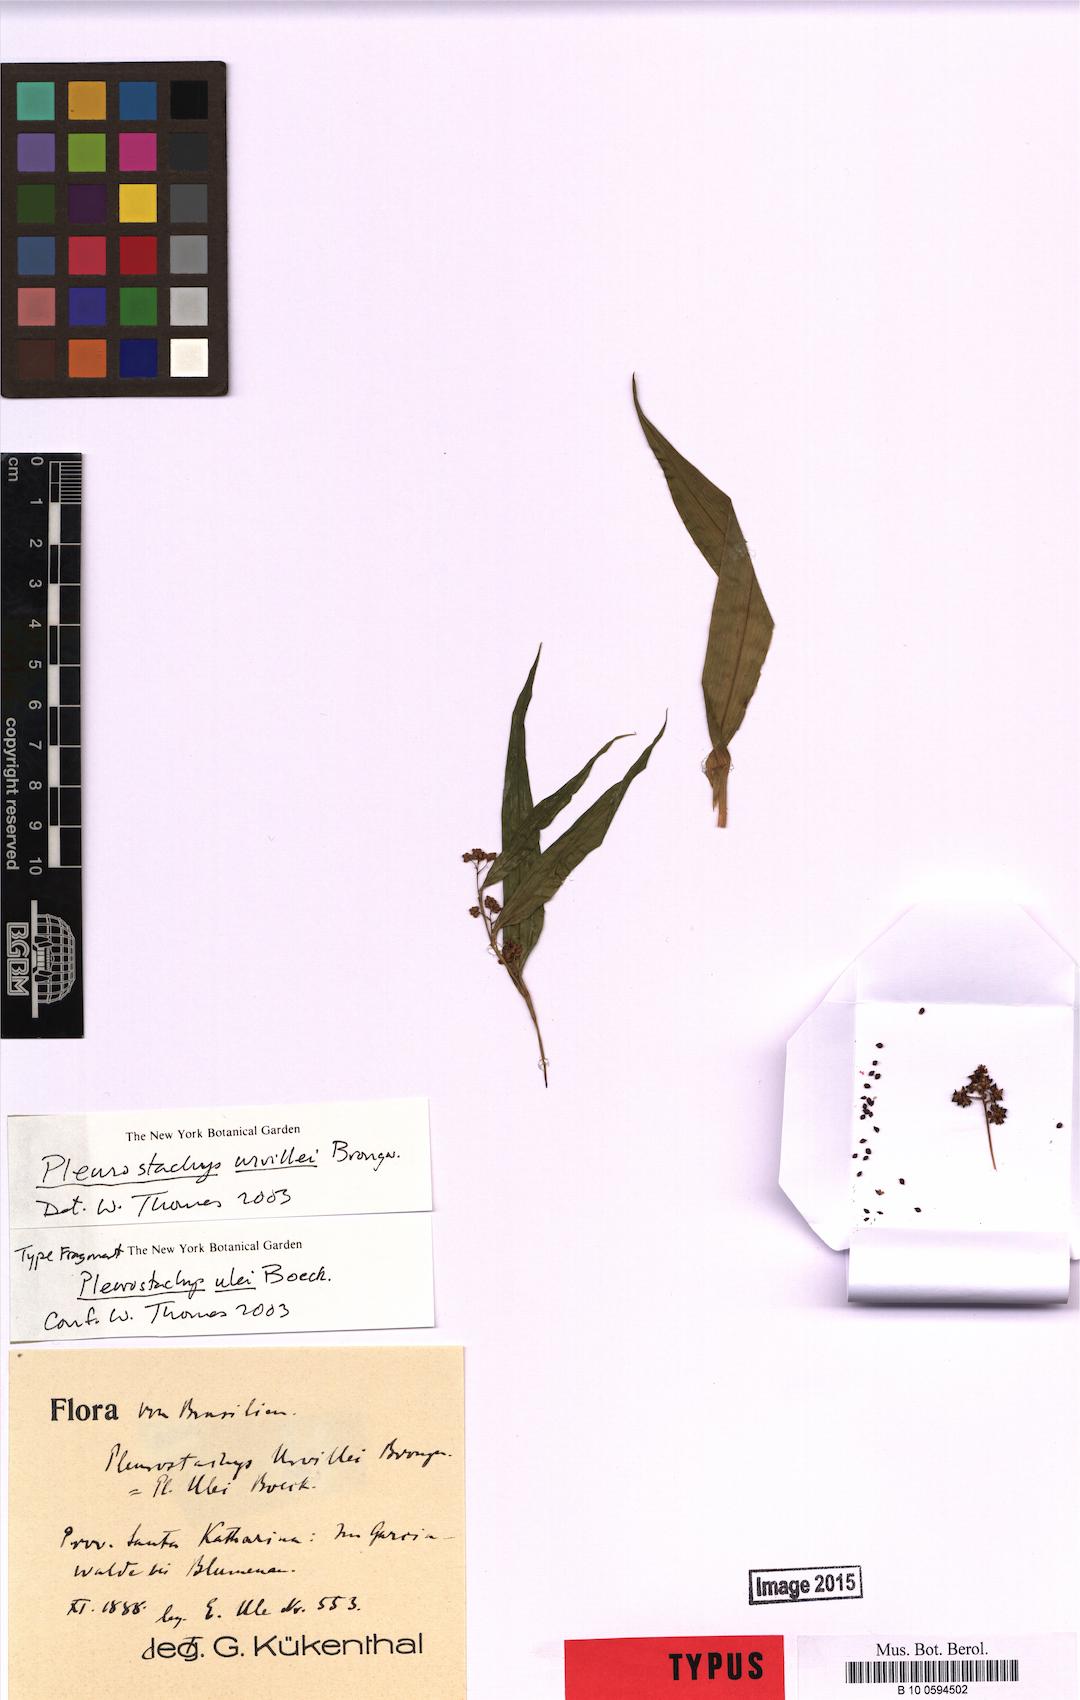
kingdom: Plantae
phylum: Tracheophyta
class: Liliopsida
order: Poales
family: Cyperaceae
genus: Rhynchospora
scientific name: Rhynchospora Pleurostachys ulei
